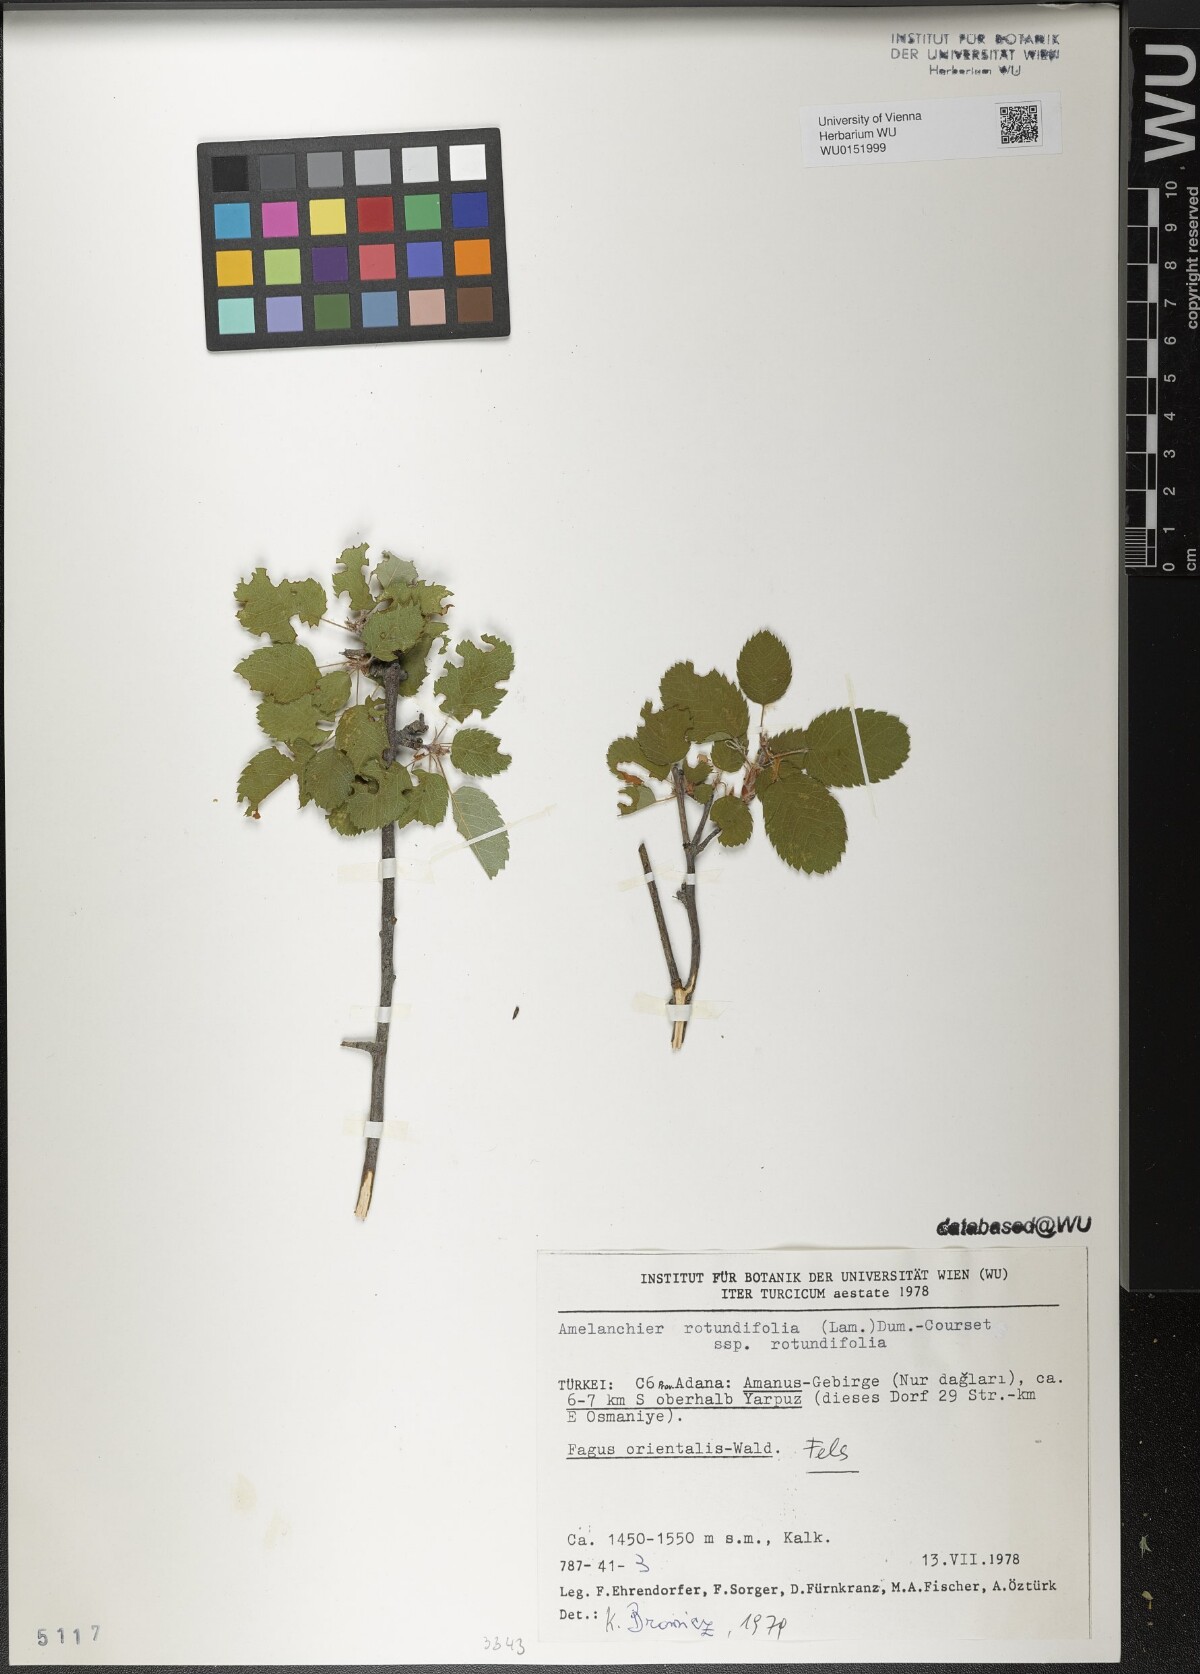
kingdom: Plantae
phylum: Tracheophyta
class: Magnoliopsida
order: Rosales
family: Rosaceae
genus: Amelanchier
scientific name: Amelanchier ovalis
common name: Serviceberry
